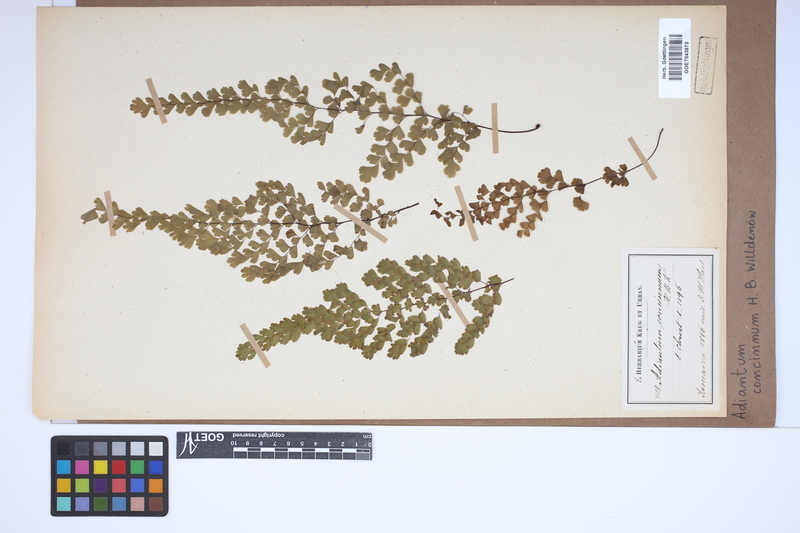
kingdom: Plantae
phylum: Tracheophyta
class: Polypodiopsida
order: Polypodiales
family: Pteridaceae
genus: Adiantum
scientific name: Adiantum concinnum
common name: Brittle maidenhair fern
